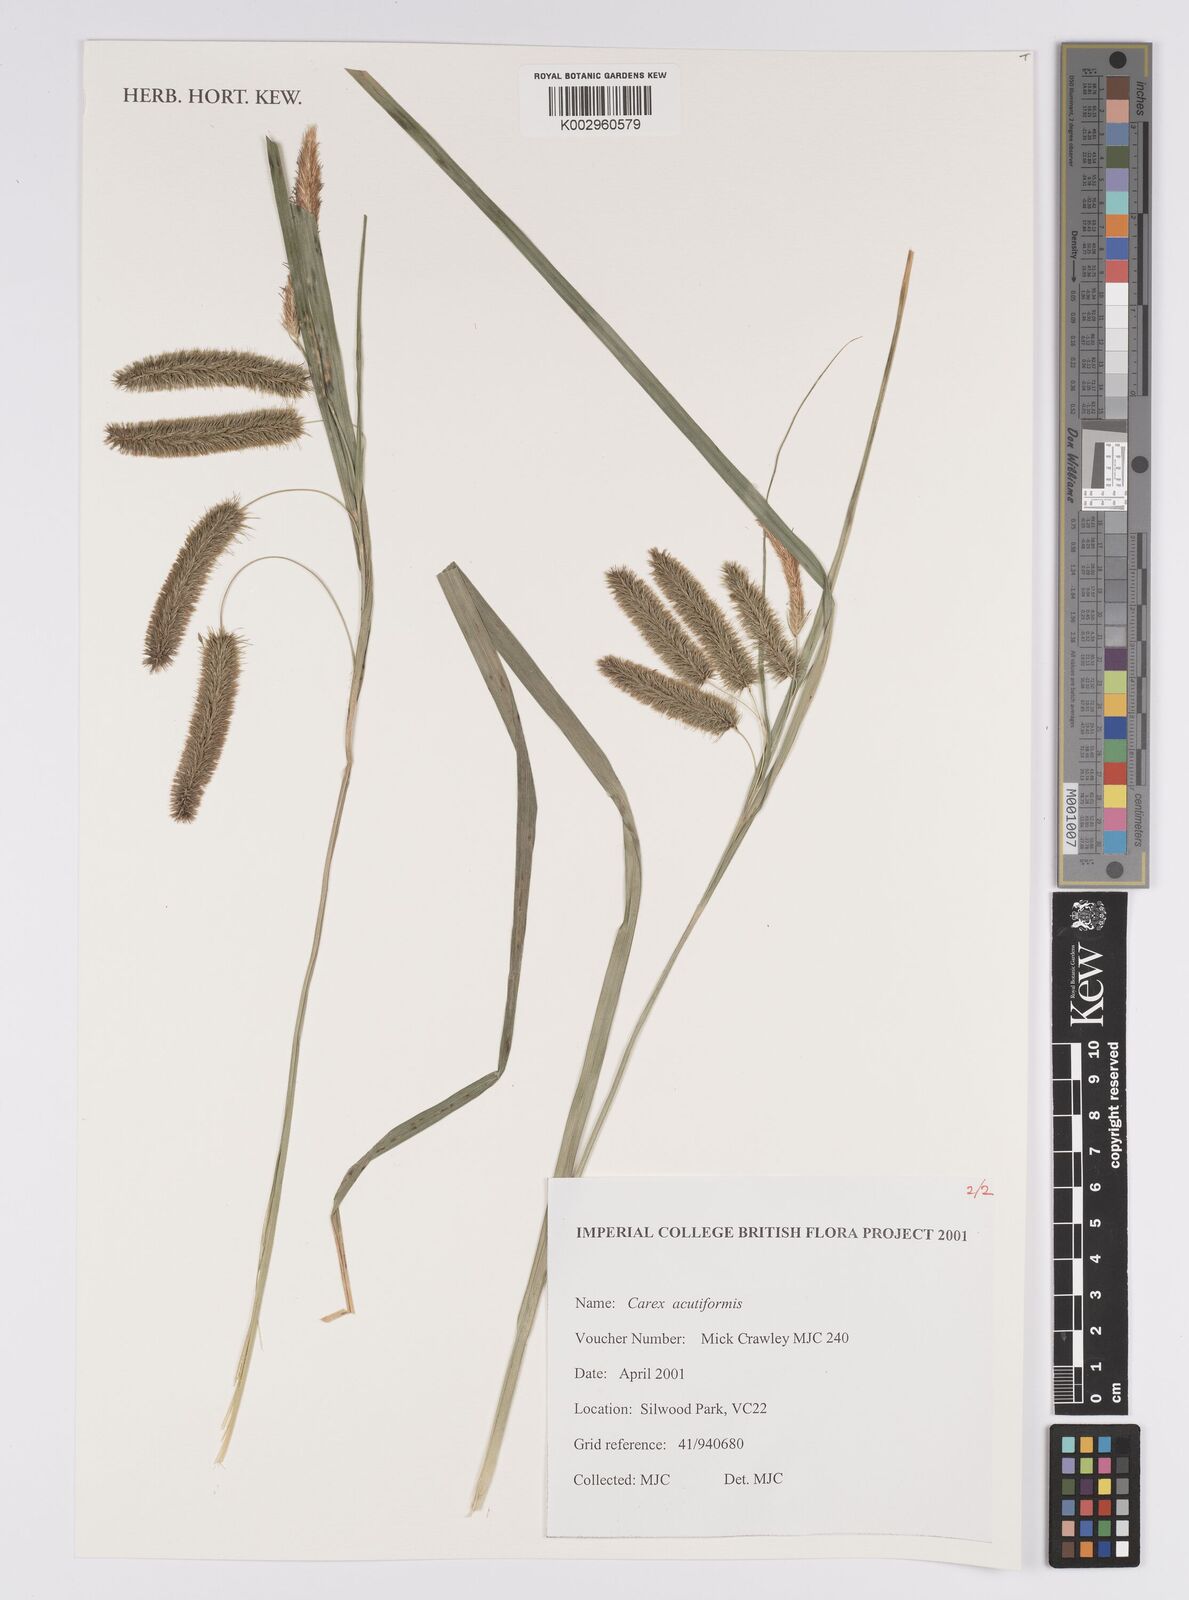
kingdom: Plantae
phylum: Tracheophyta
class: Liliopsida
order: Poales
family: Cyperaceae
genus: Carex
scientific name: Carex acutiformis
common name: Lesser pond-sedge
